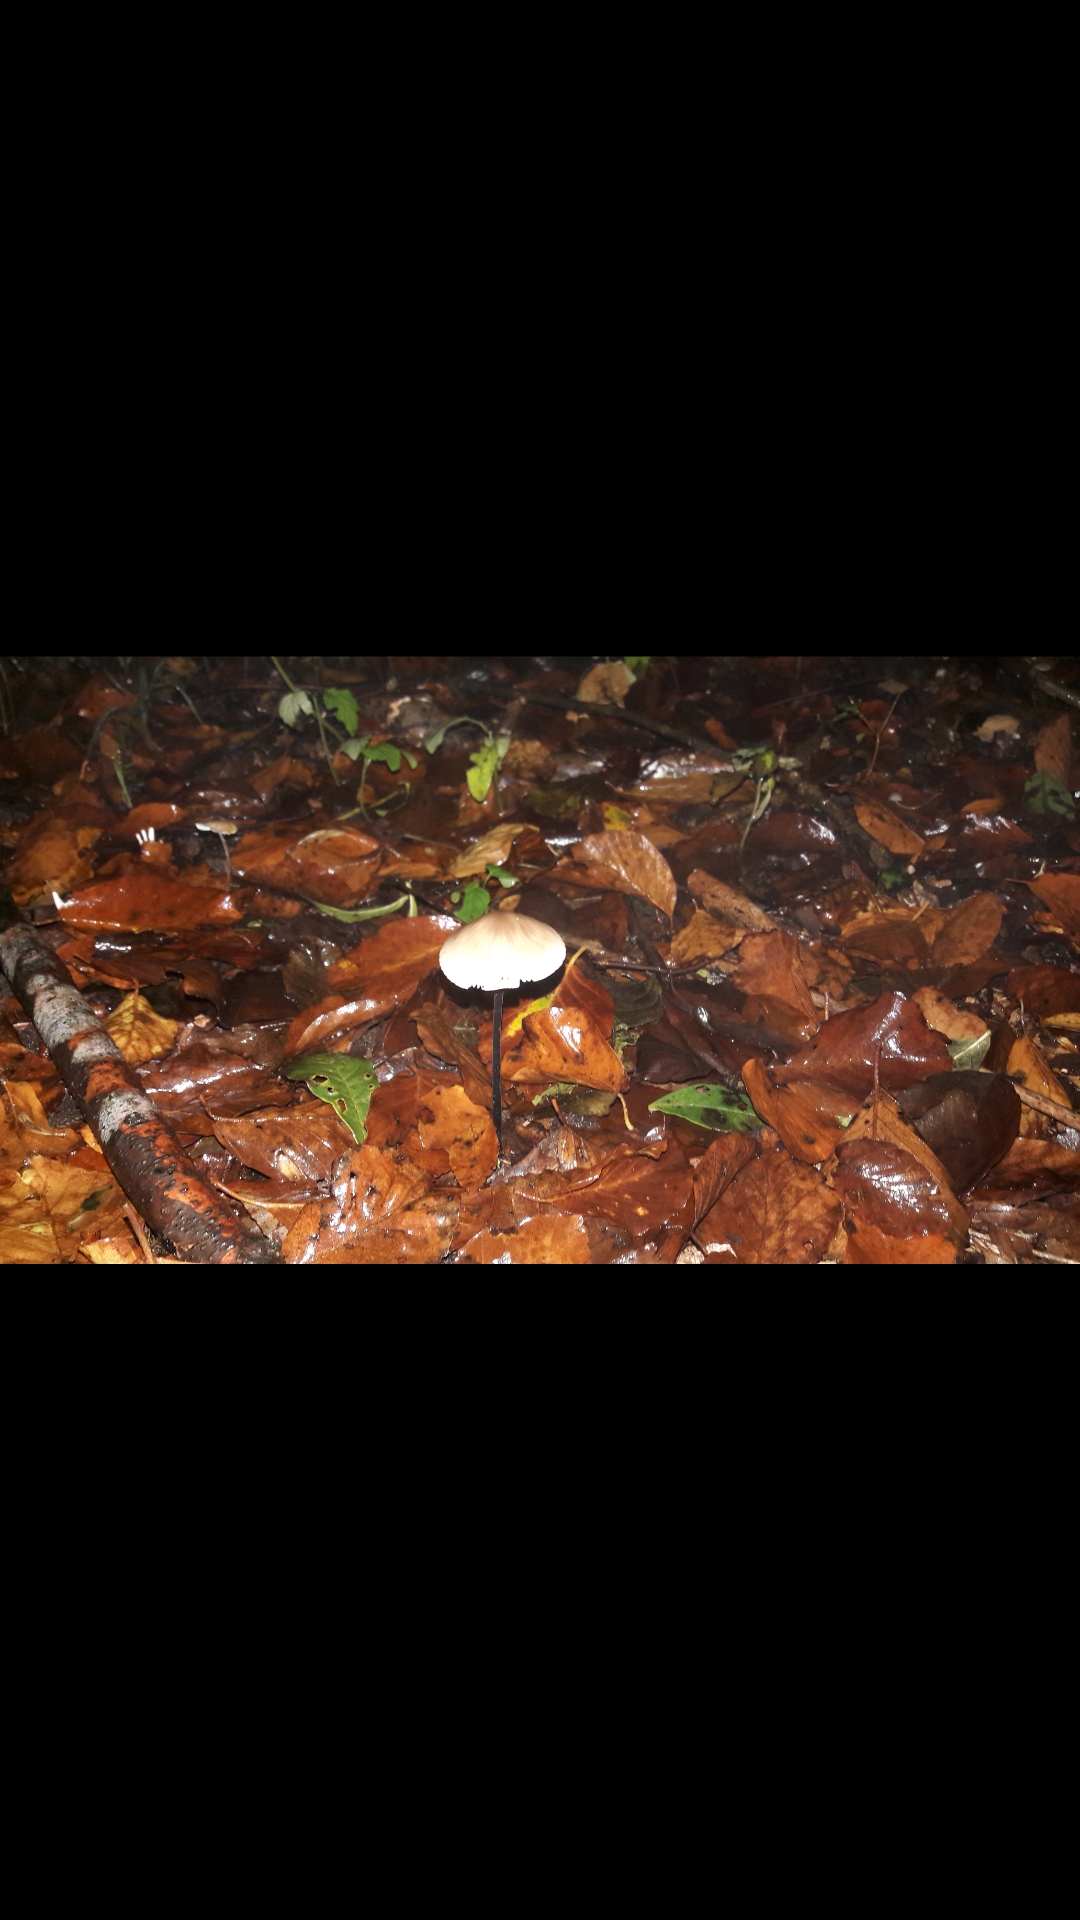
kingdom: Fungi
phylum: Basidiomycota
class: Agaricomycetes
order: Agaricales
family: Omphalotaceae
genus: Mycetinis
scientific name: Mycetinis alliaceus
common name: stor løghat
